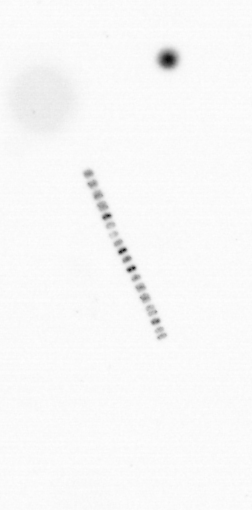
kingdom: Chromista
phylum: Ochrophyta
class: Bacillariophyceae
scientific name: Bacillariophyceae
